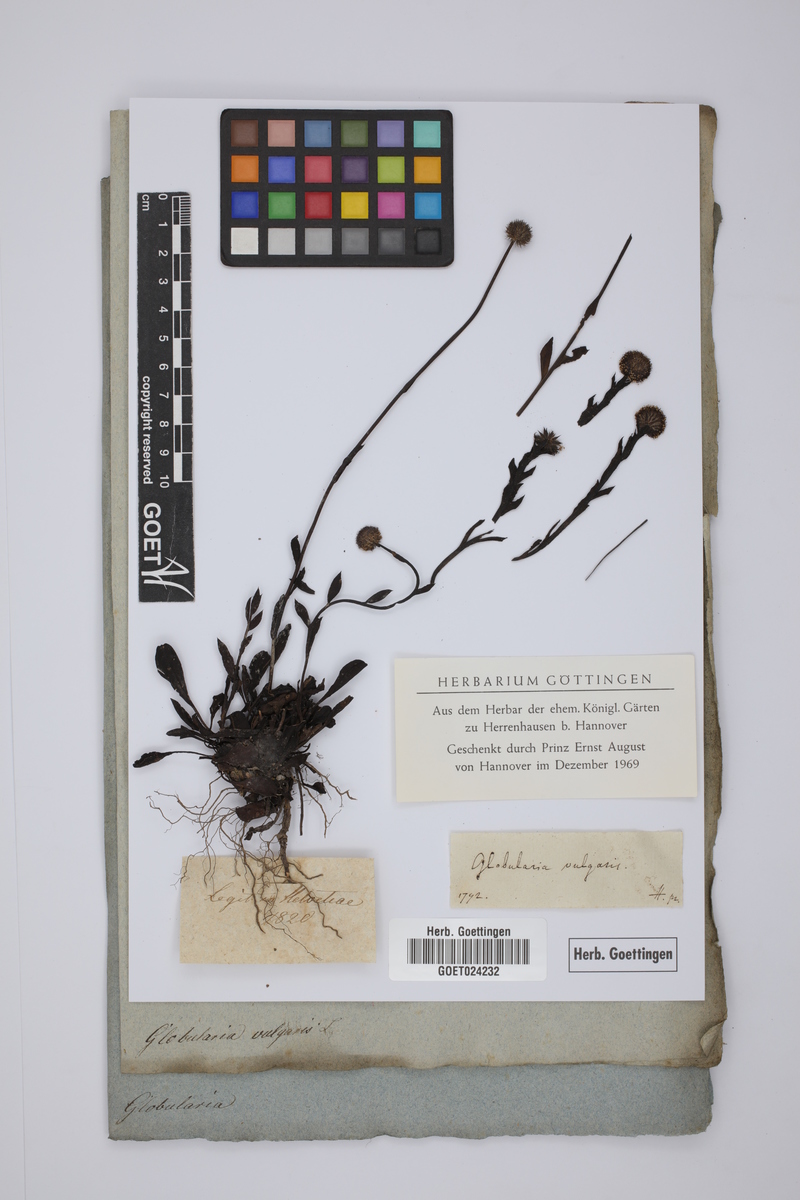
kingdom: Plantae
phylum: Tracheophyta
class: Magnoliopsida
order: Lamiales
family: Plantaginaceae
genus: Globularia
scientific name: Globularia vulgaris
